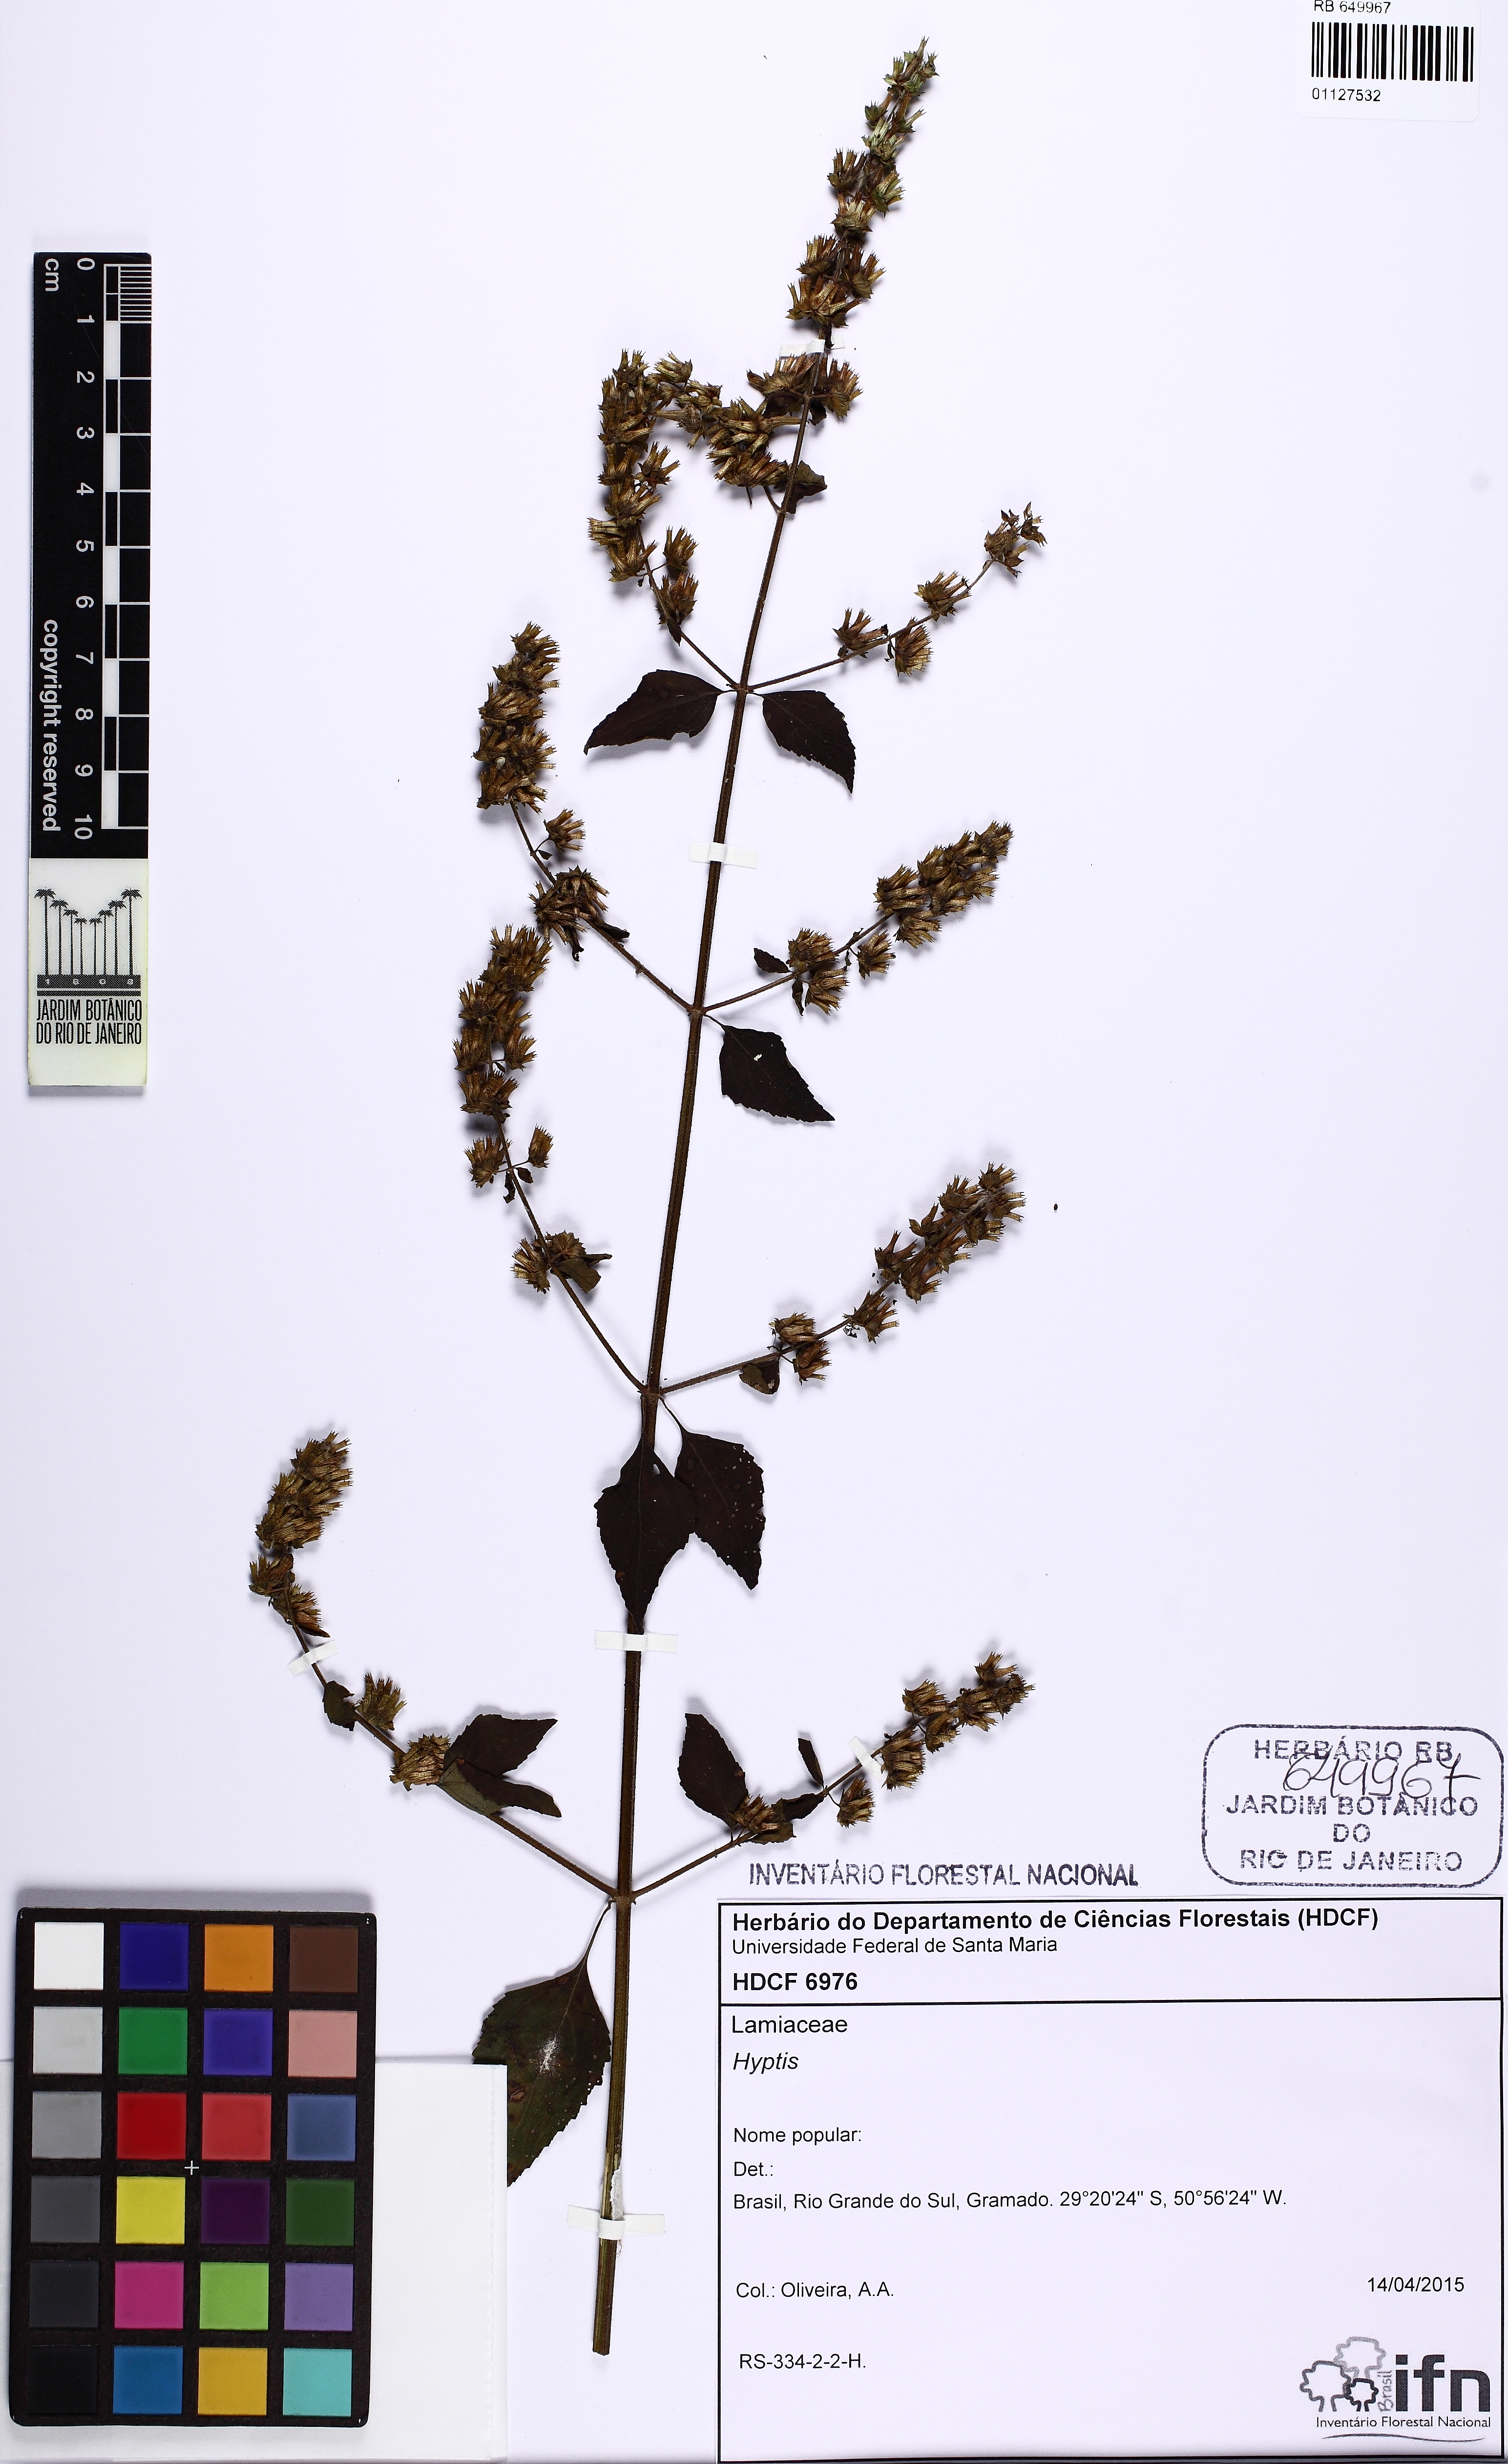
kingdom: Plantae
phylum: Tracheophyta
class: Magnoliopsida
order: Lamiales
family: Lamiaceae
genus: Cantinoa
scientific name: Cantinoa
